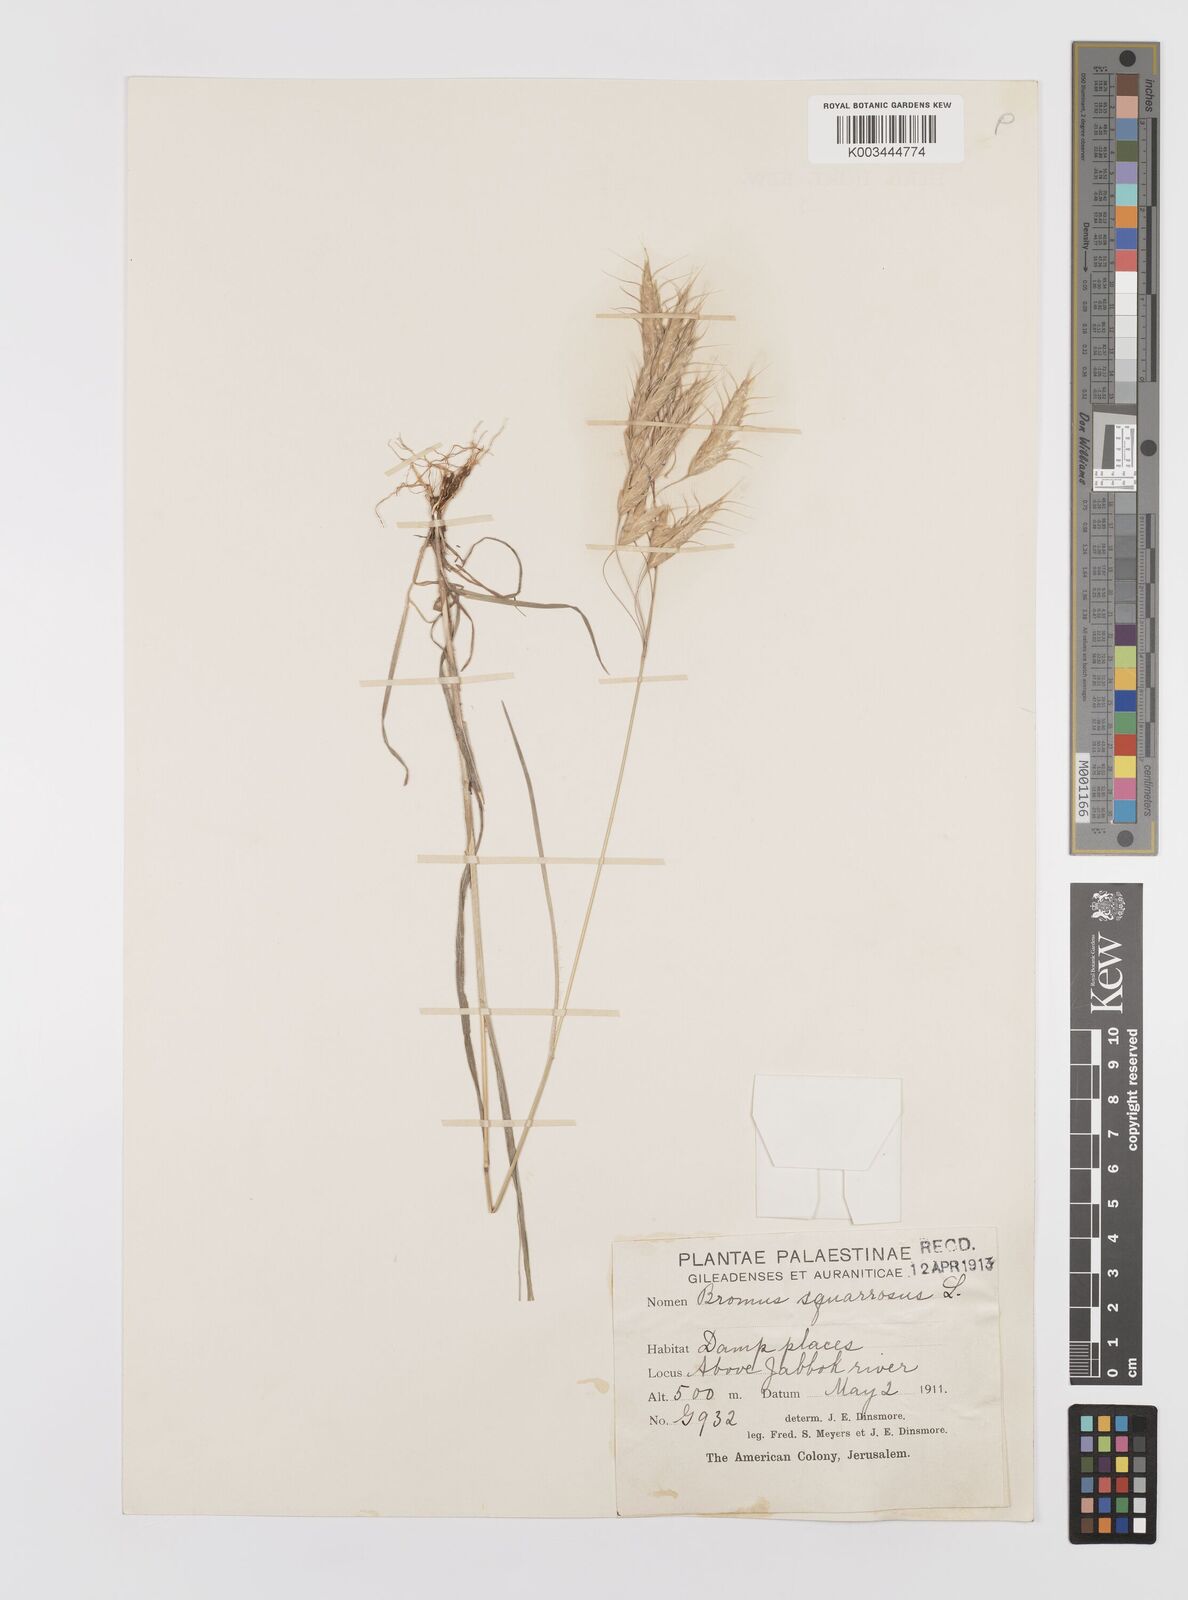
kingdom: Plantae
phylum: Tracheophyta
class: Liliopsida
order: Poales
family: Poaceae
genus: Bromus
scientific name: Bromus squarrosus
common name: Corn brome
